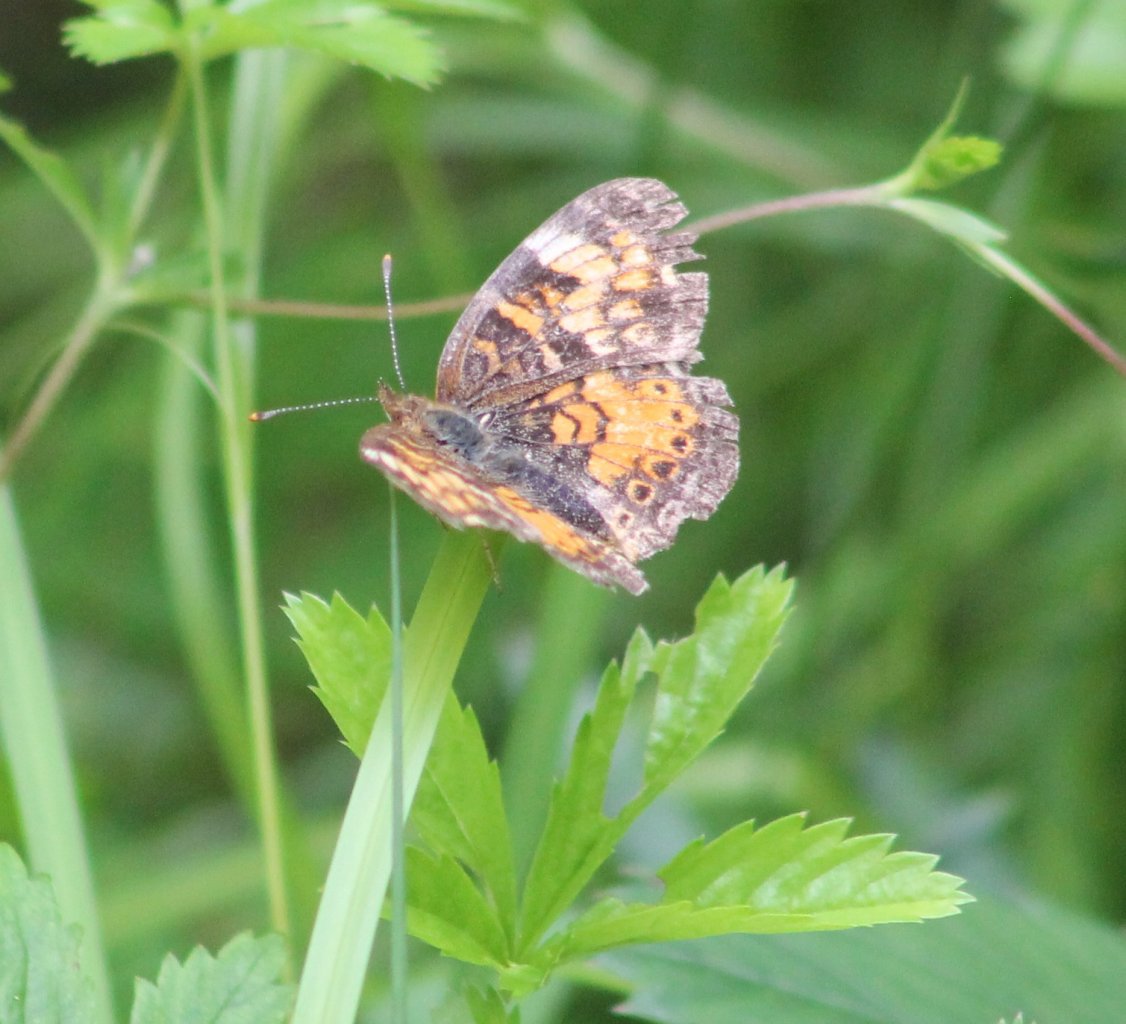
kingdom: Animalia
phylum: Arthropoda
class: Insecta
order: Lepidoptera
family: Nymphalidae
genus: Phyciodes
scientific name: Phyciodes tharos
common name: Pearl Crescent
